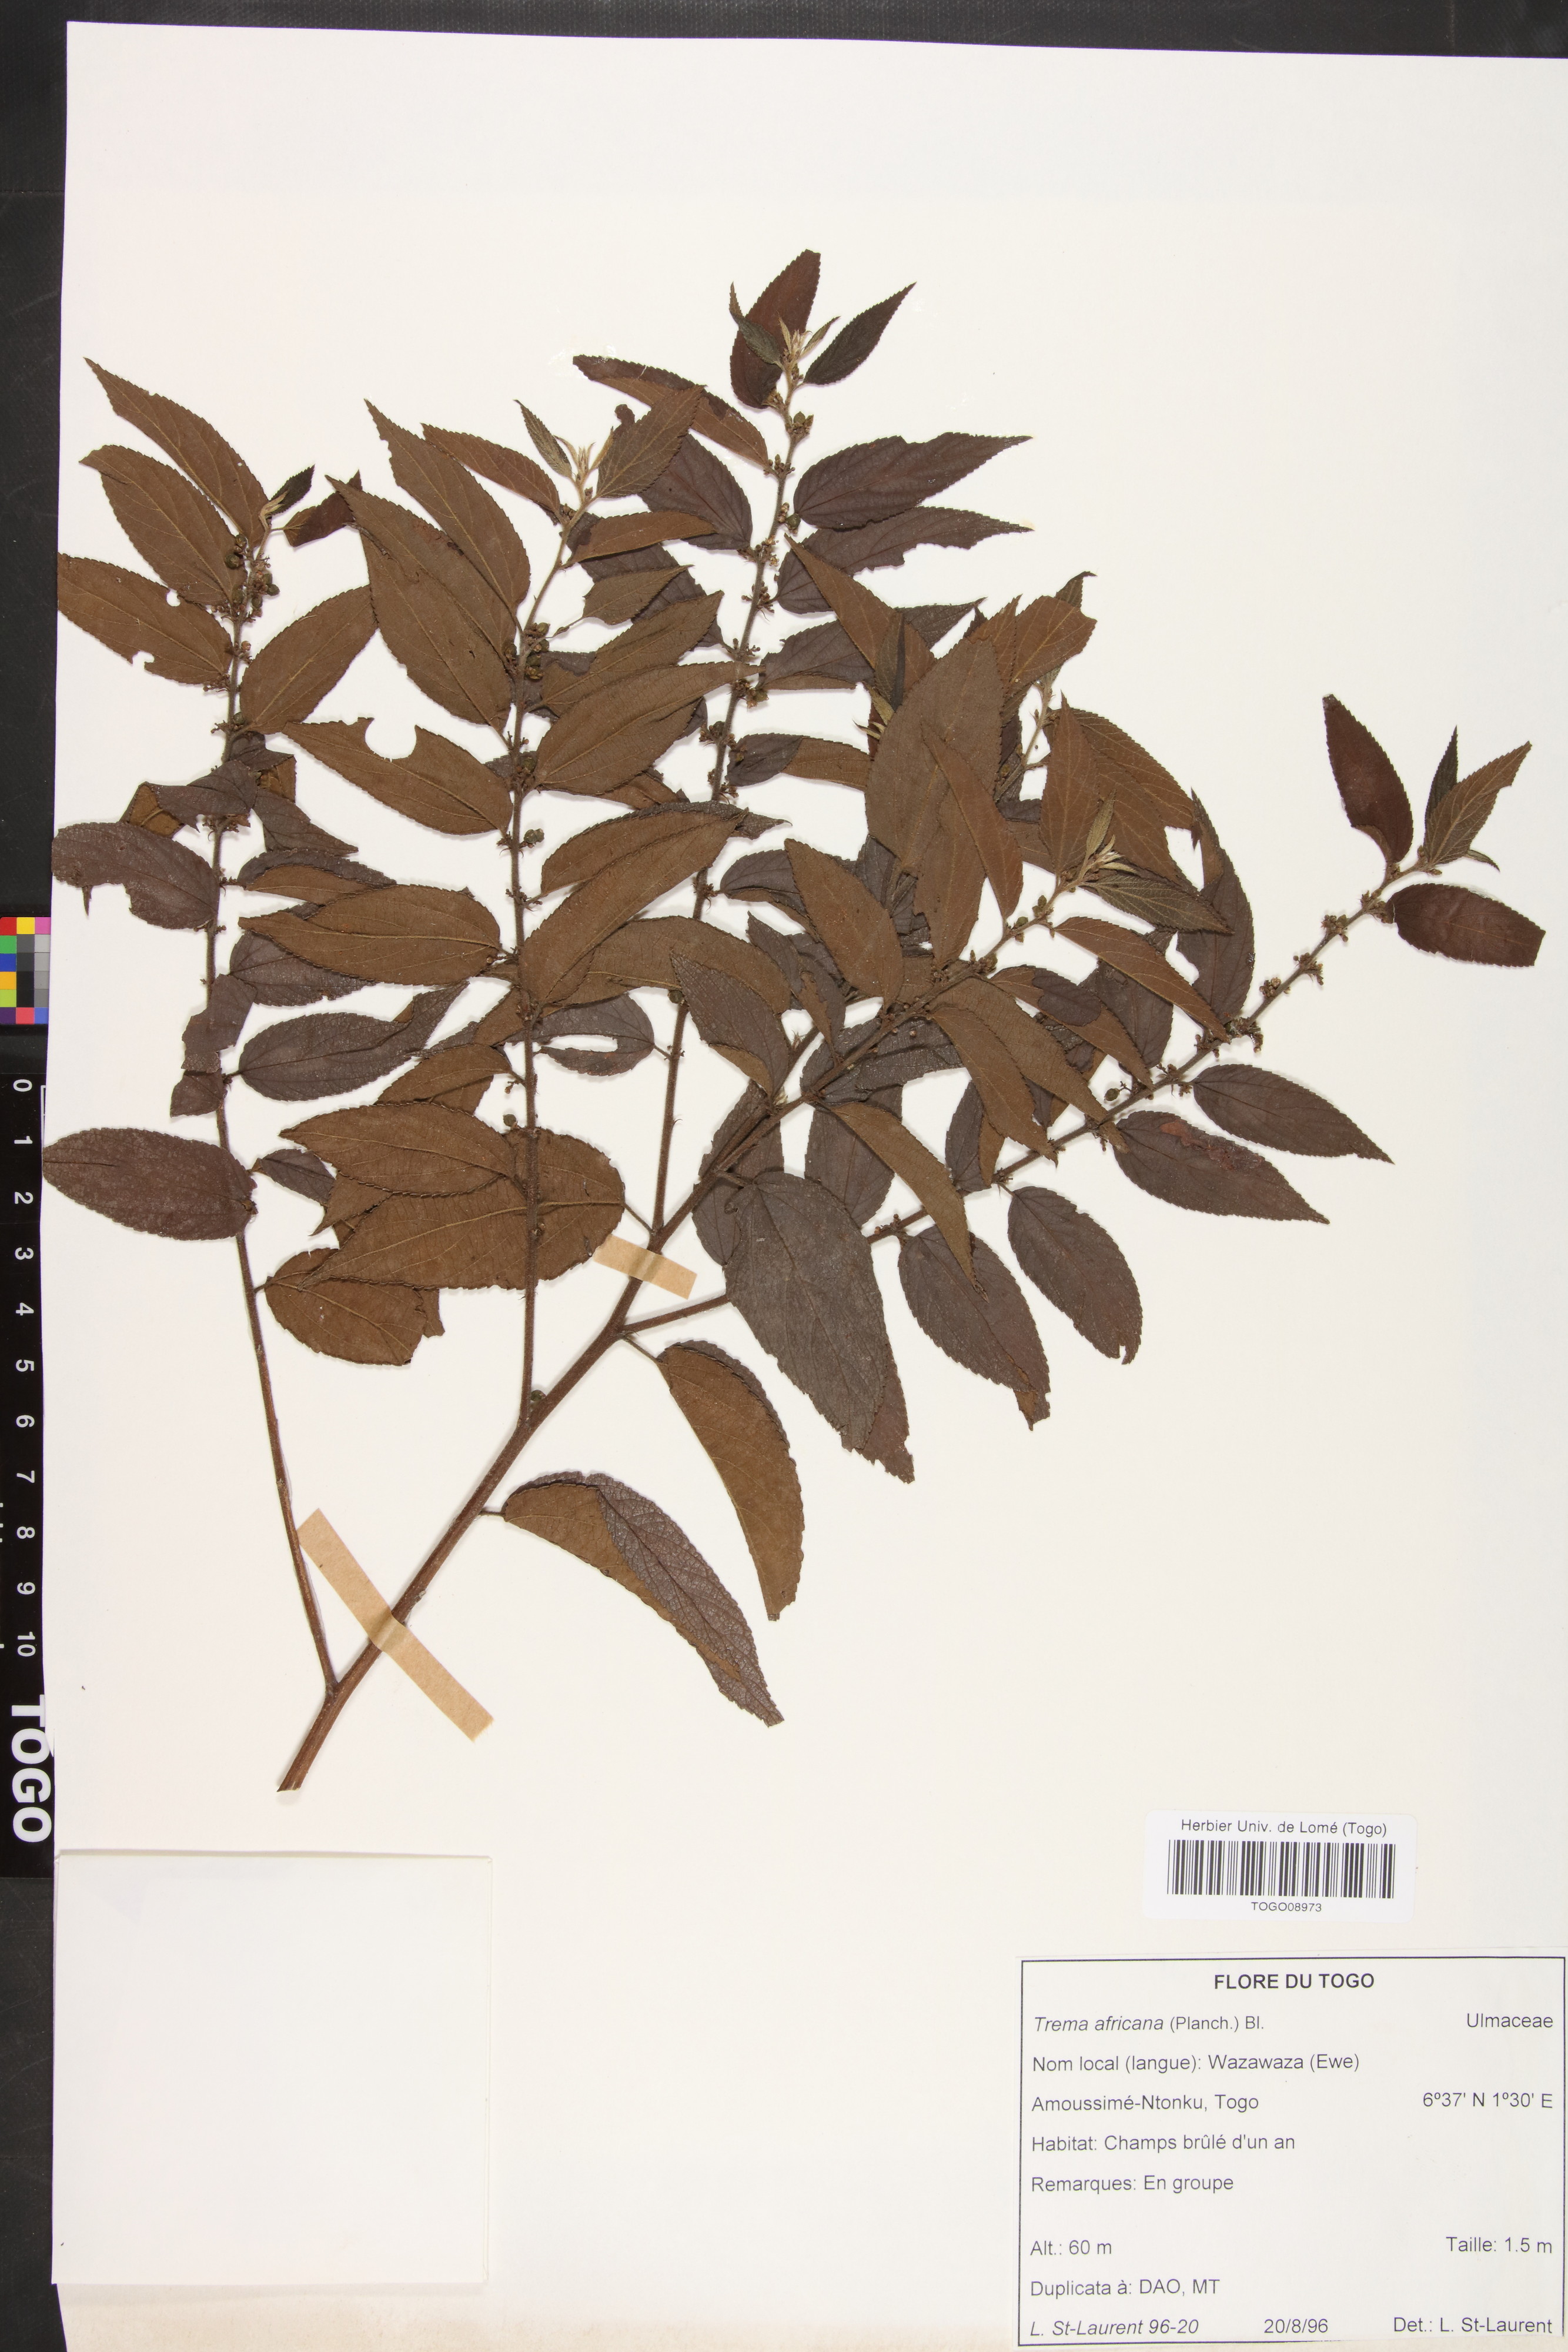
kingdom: Plantae
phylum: Tracheophyta
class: Magnoliopsida
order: Rosales
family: Cannabaceae
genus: Trema
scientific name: Trema orientale
